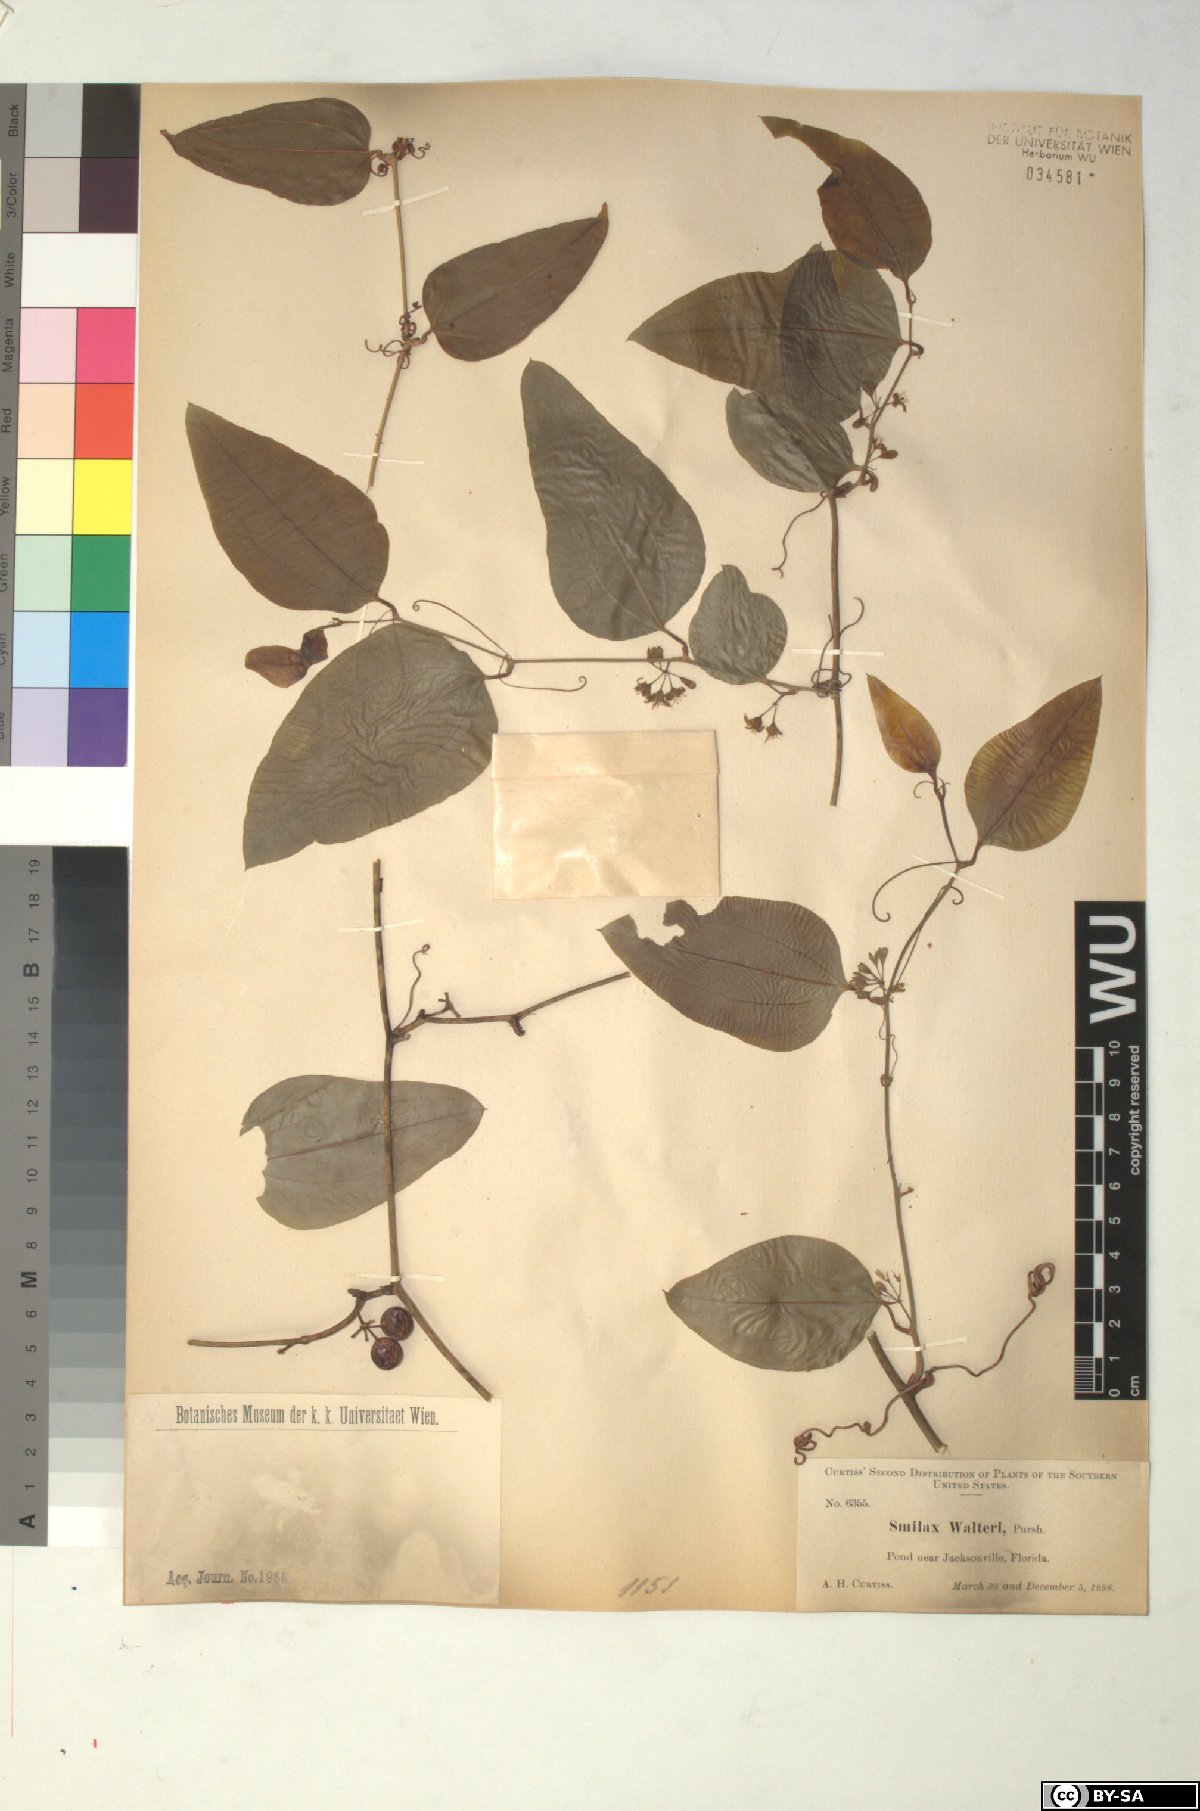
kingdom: Plantae
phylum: Tracheophyta
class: Liliopsida
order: Liliales
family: Smilacaceae
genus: Smilax
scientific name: Smilax walteri
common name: Coral greenbrier
